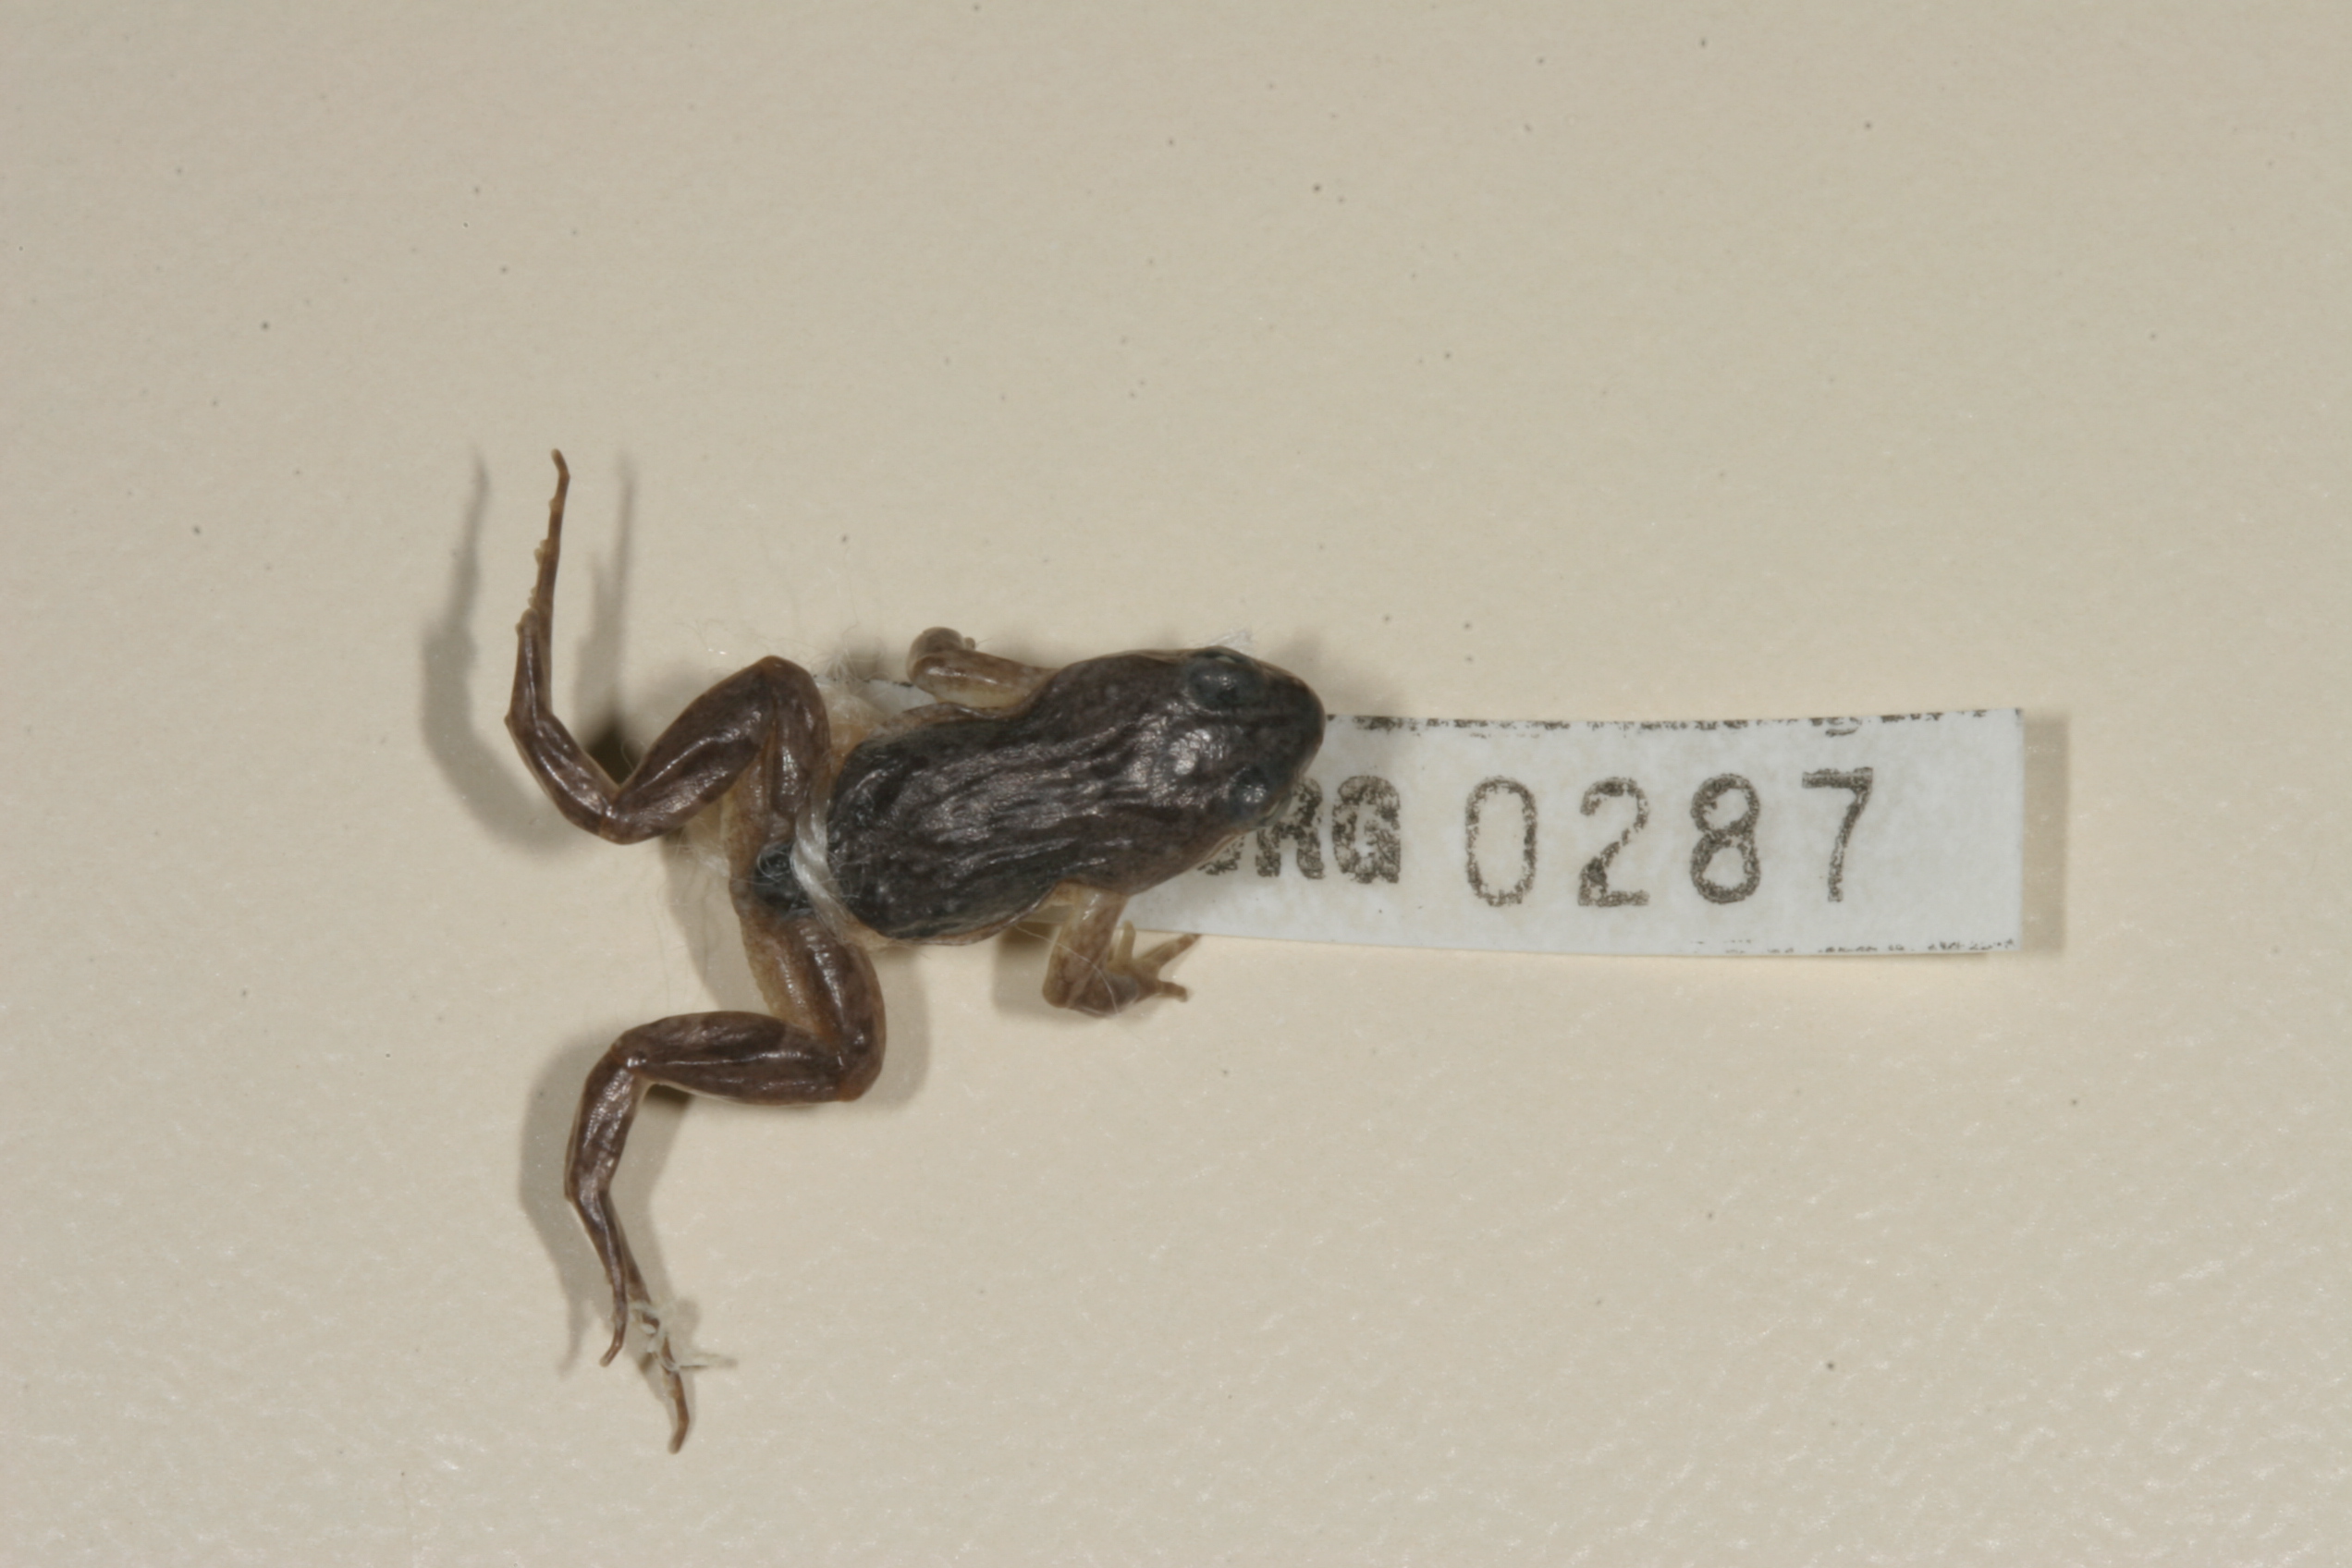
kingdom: Animalia
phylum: Chordata
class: Amphibia
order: Anura
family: Pyxicephalidae
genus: Cacosternum
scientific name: Cacosternum boettgeri
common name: Boettger's frog
